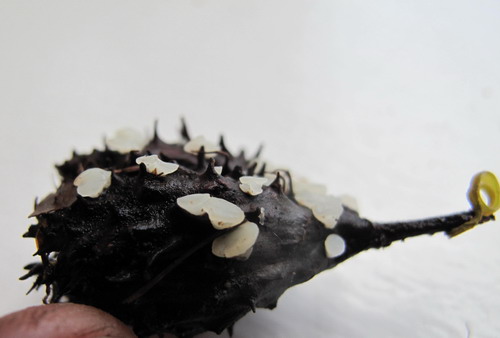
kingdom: Fungi
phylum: Ascomycota
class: Leotiomycetes
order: Helotiales
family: Helotiaceae
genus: Hymenoscyphus
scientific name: Hymenoscyphus fagineus
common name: vellugtende stilkskive
